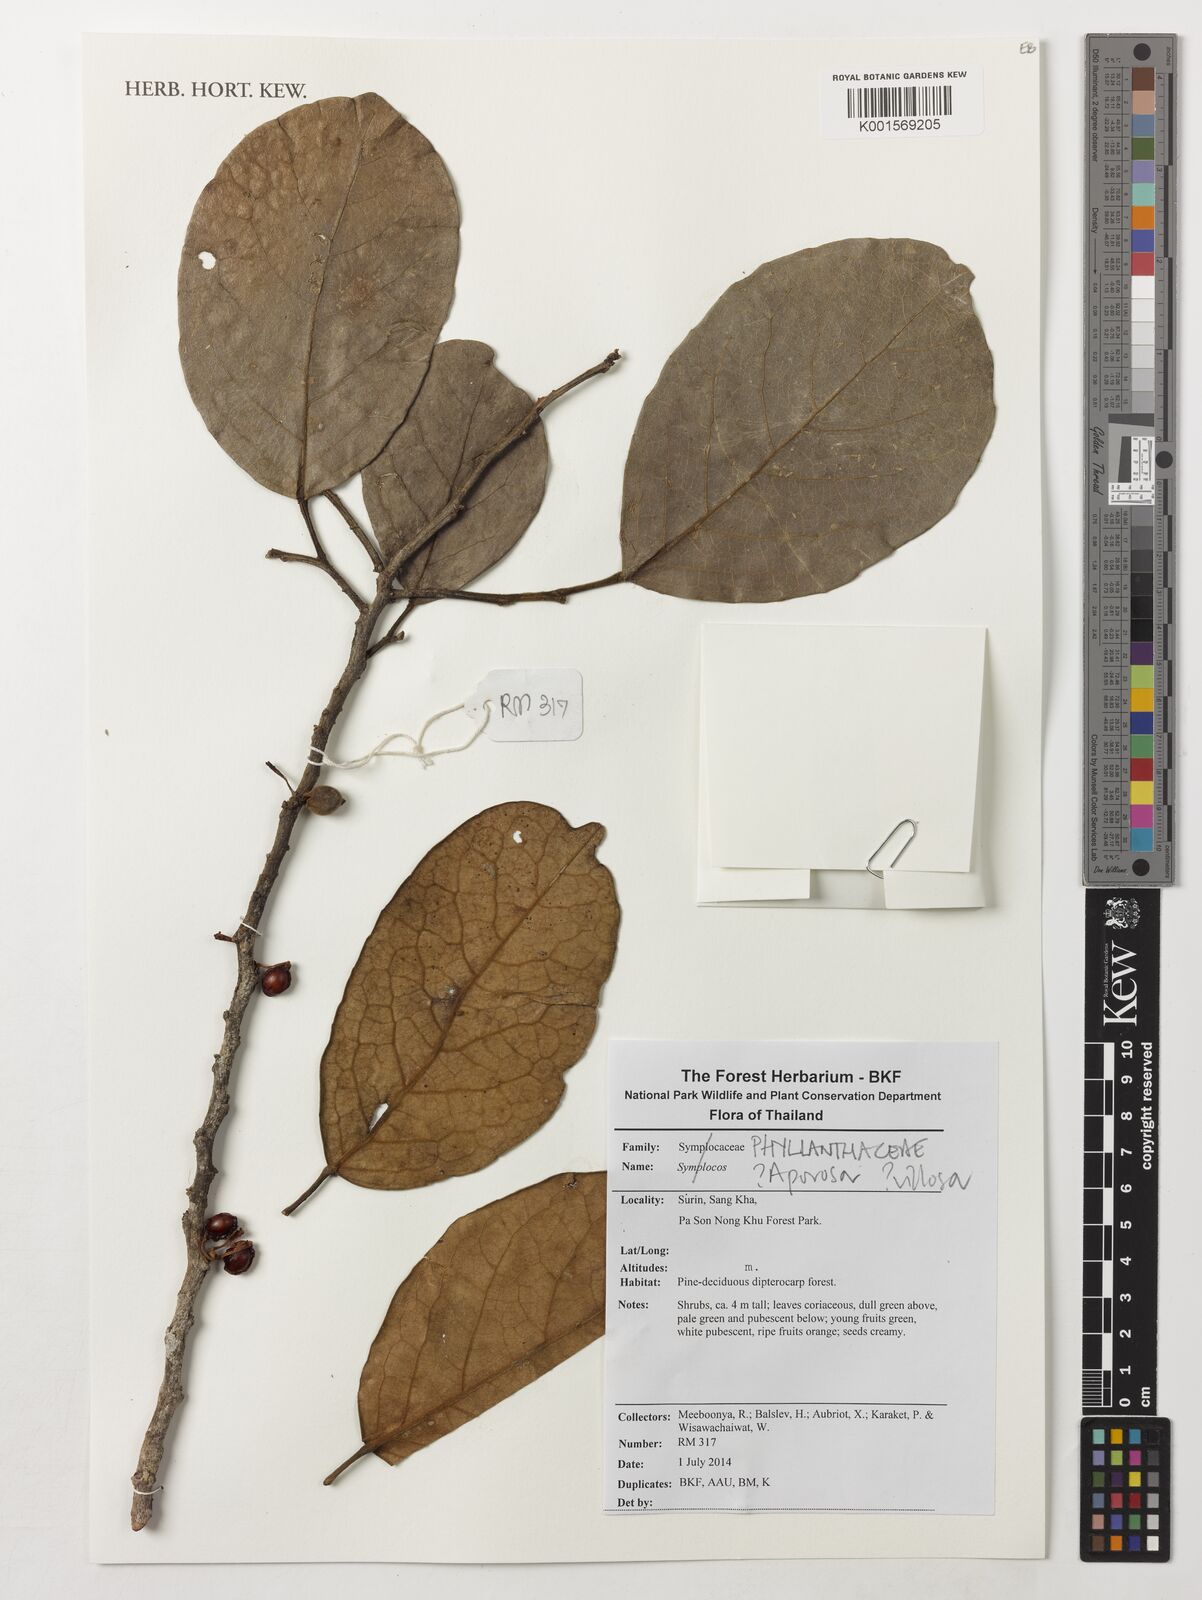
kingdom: Plantae
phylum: Tracheophyta
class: Magnoliopsida
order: Malpighiales
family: Phyllanthaceae
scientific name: Phyllanthaceae
